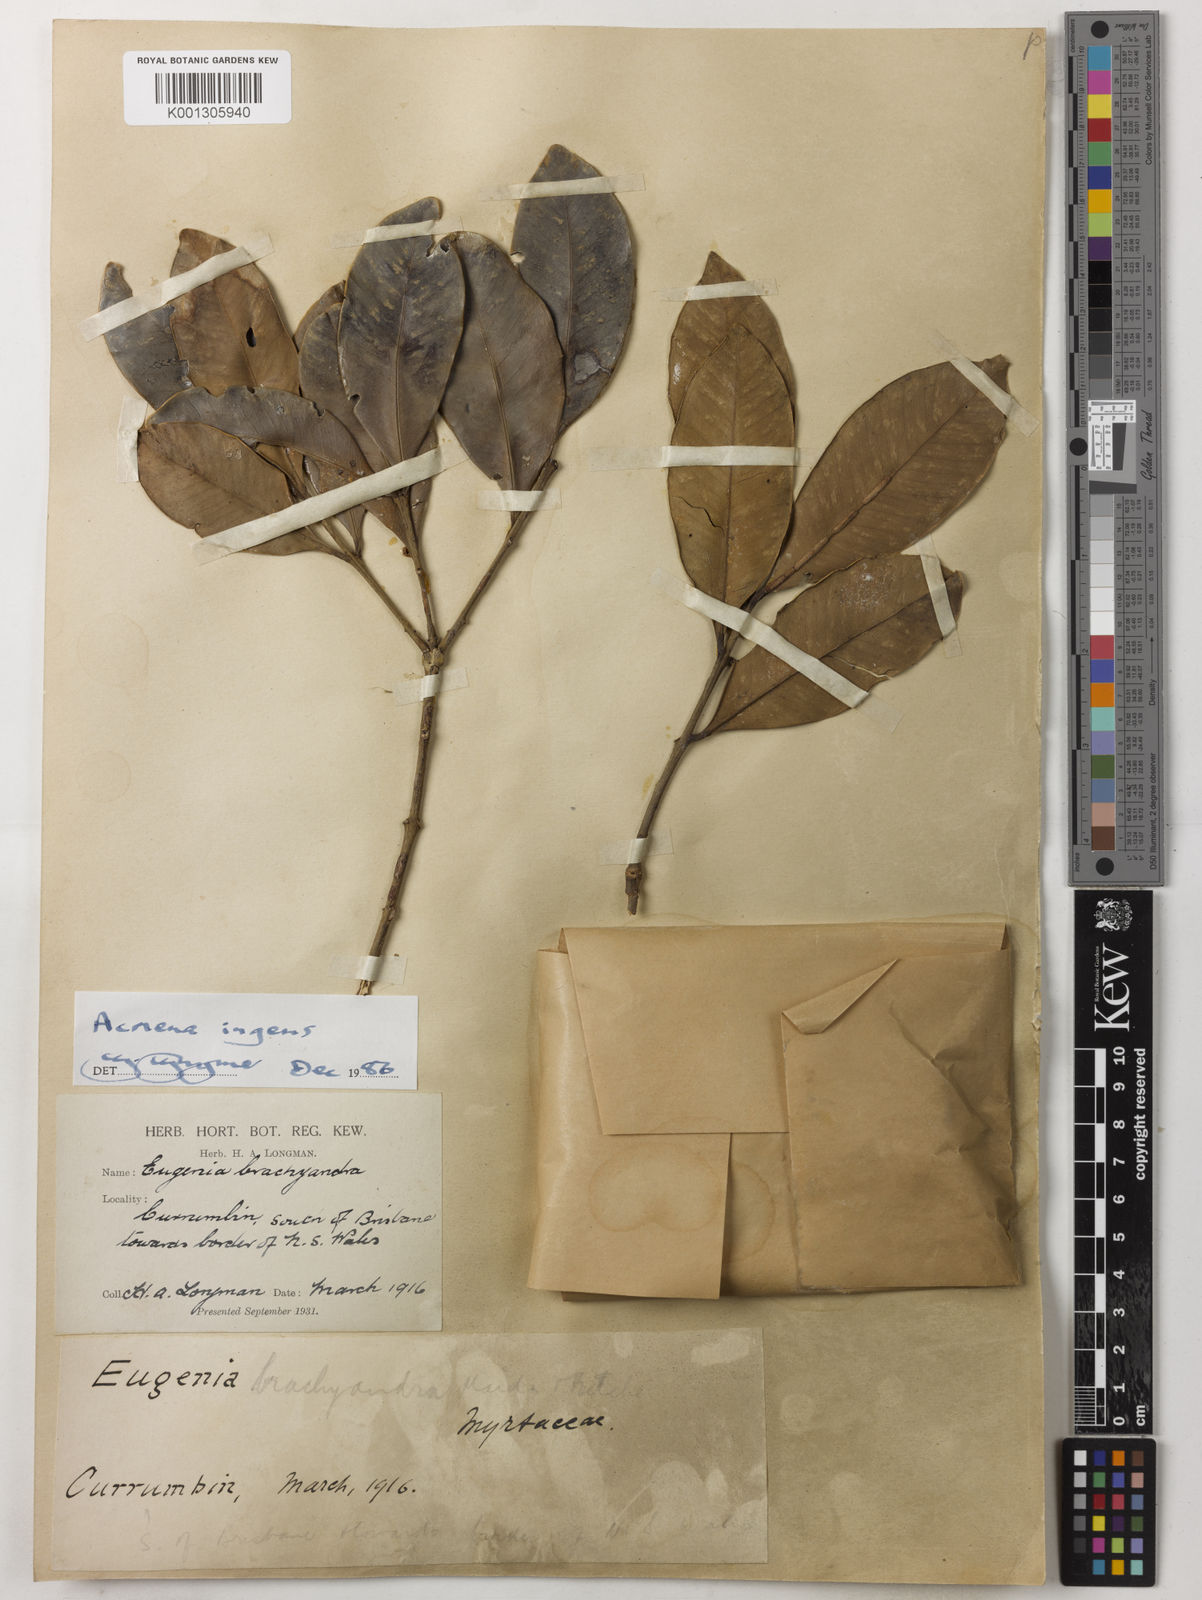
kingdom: Plantae
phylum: Tracheophyta
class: Magnoliopsida
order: Myrtales
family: Myrtaceae
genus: Syzygium
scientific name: Syzygium ingens
